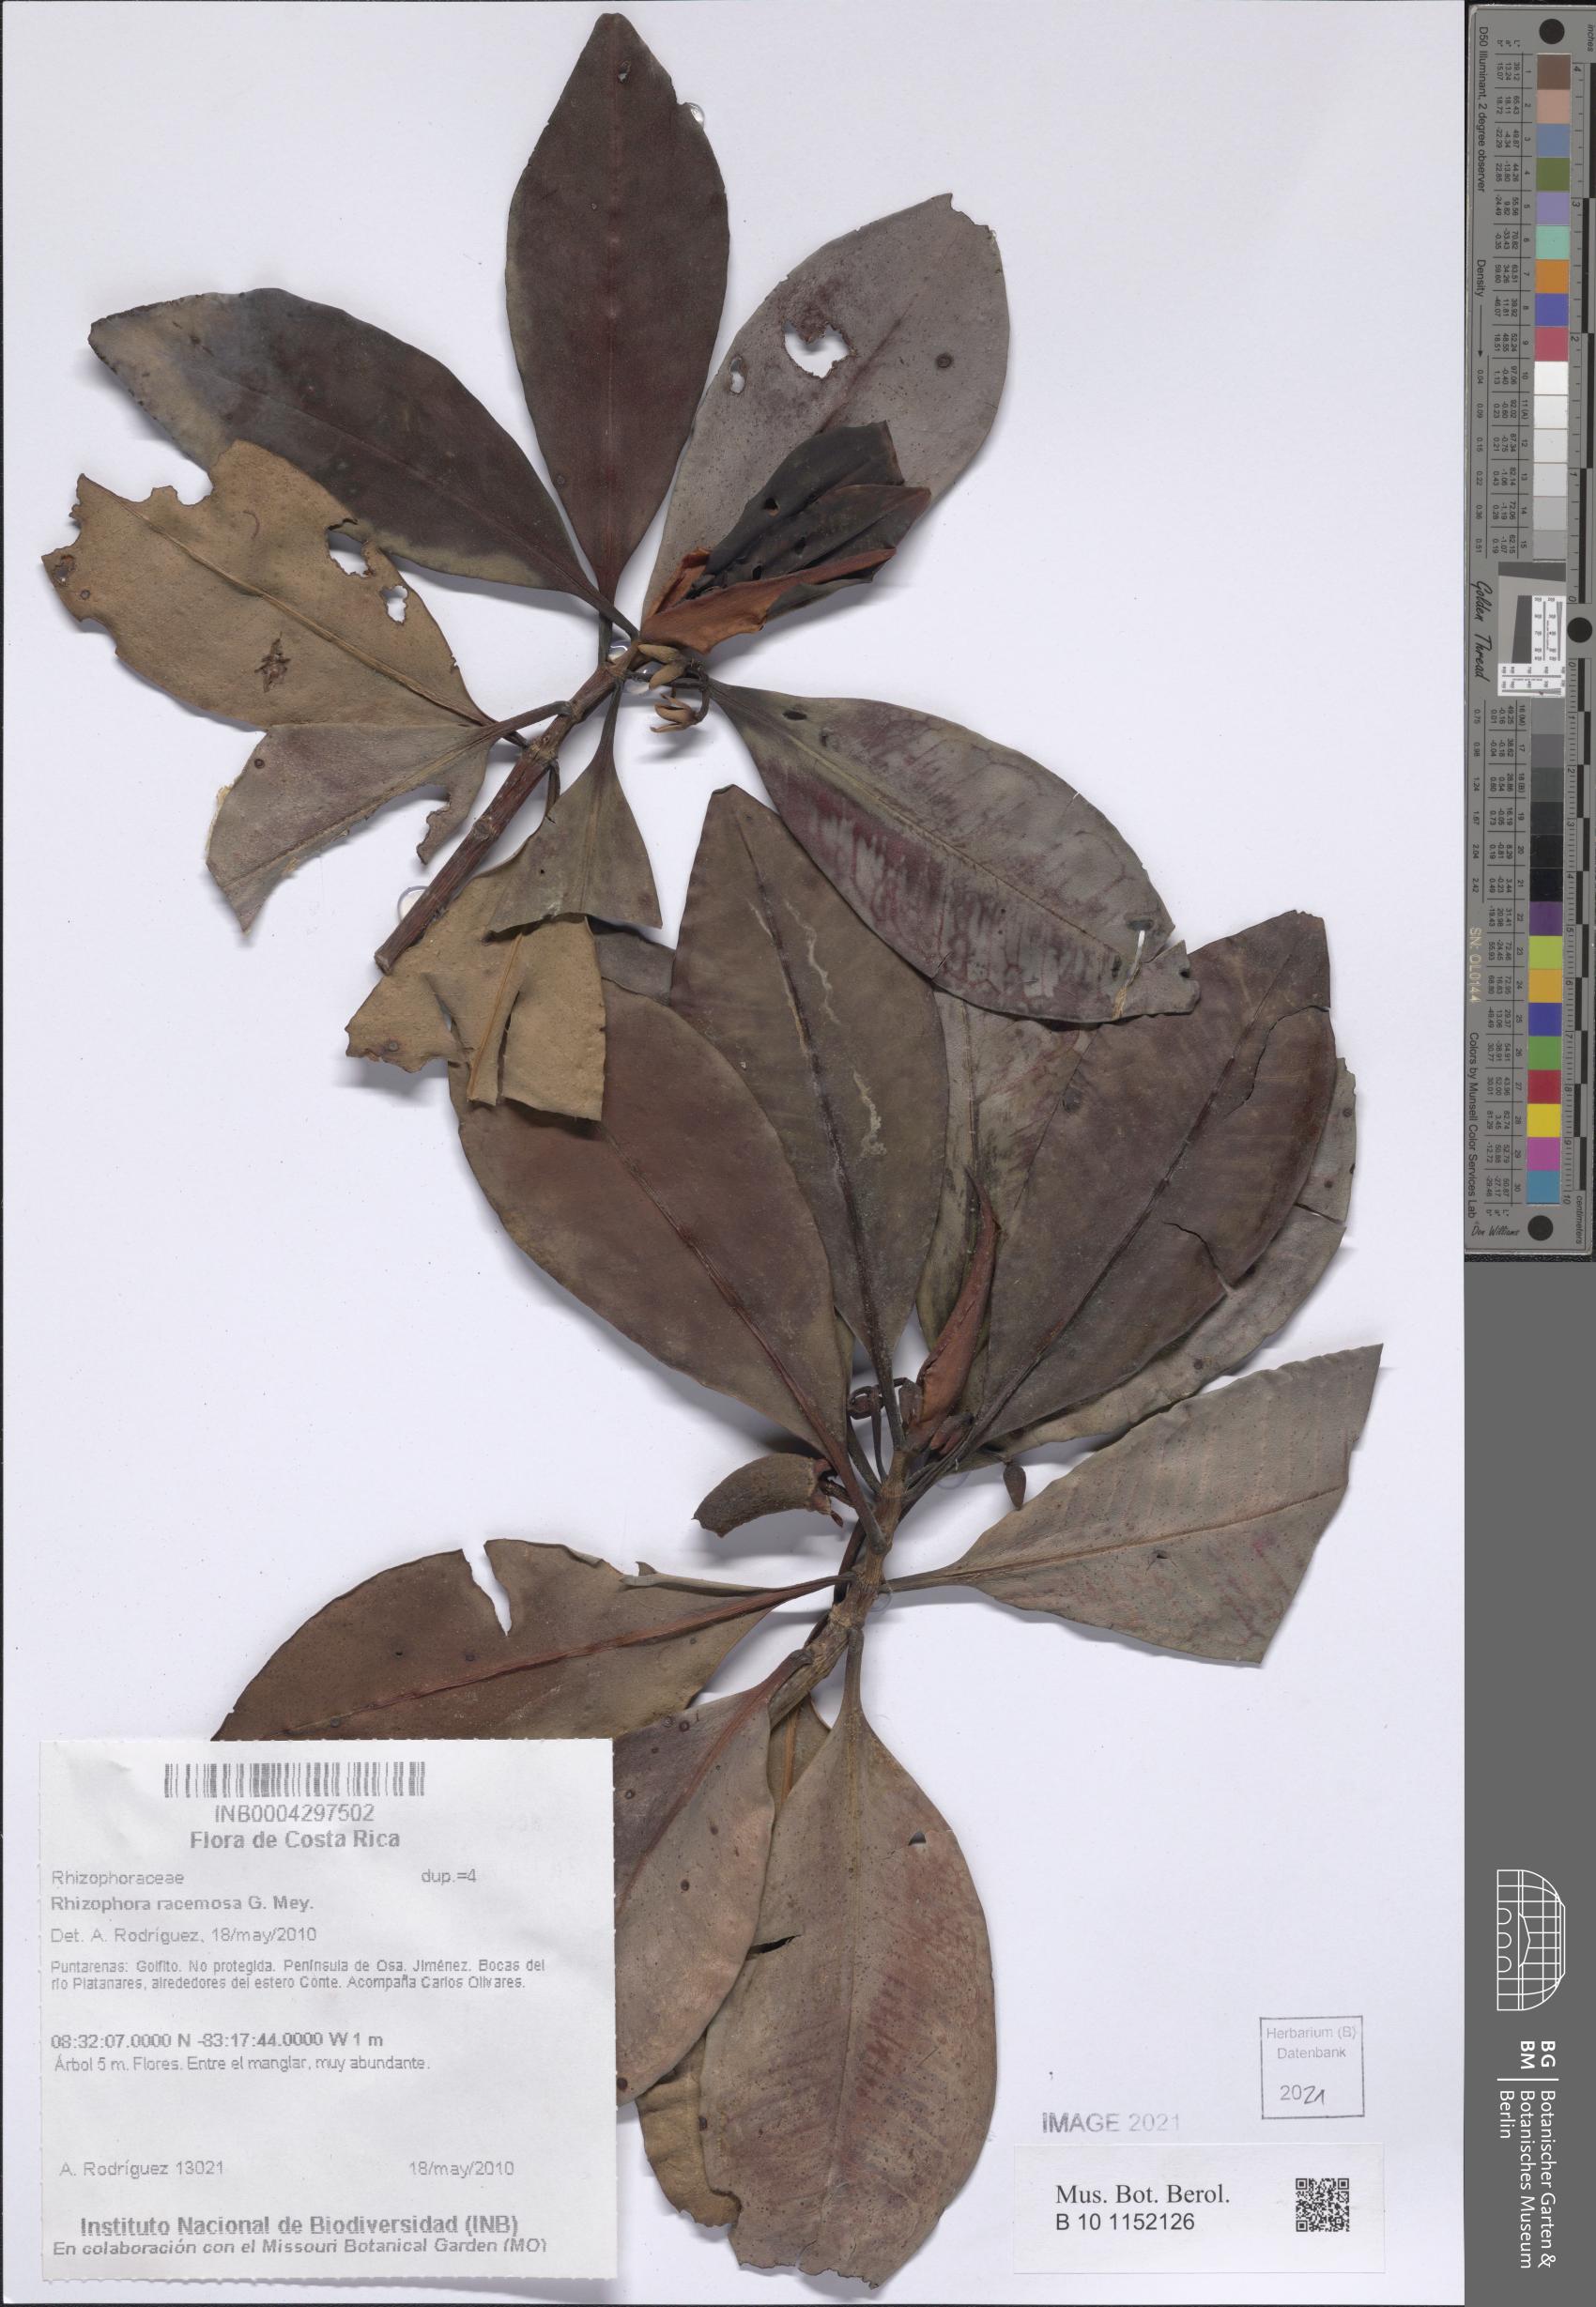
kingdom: Plantae
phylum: Tracheophyta
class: Magnoliopsida
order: Malpighiales
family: Rhizophoraceae
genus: Rhizophora
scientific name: Rhizophora mangle
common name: Red mangrove
